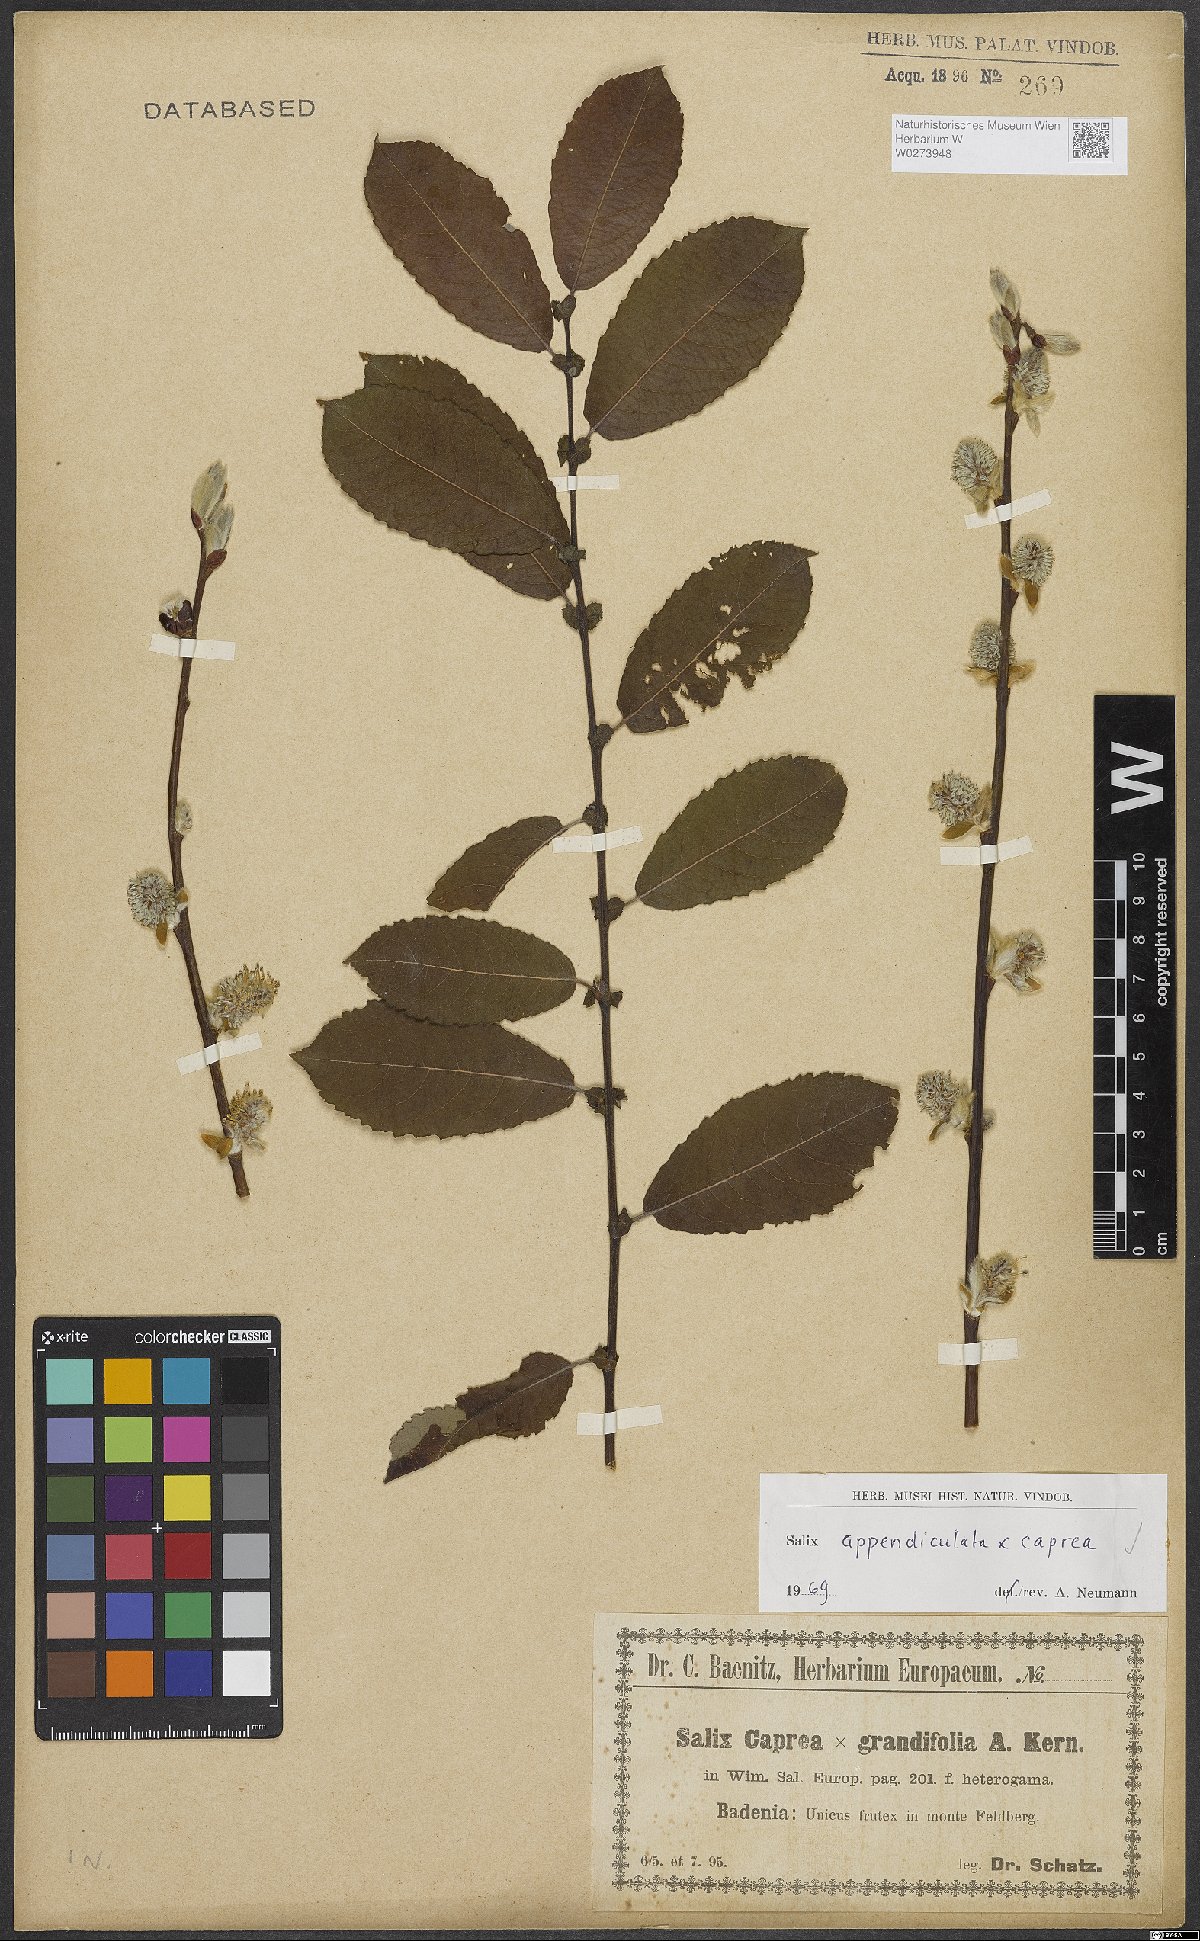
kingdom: Plantae
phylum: Tracheophyta
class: Magnoliopsida
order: Malpighiales
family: Salicaceae
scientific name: Salicaceae
